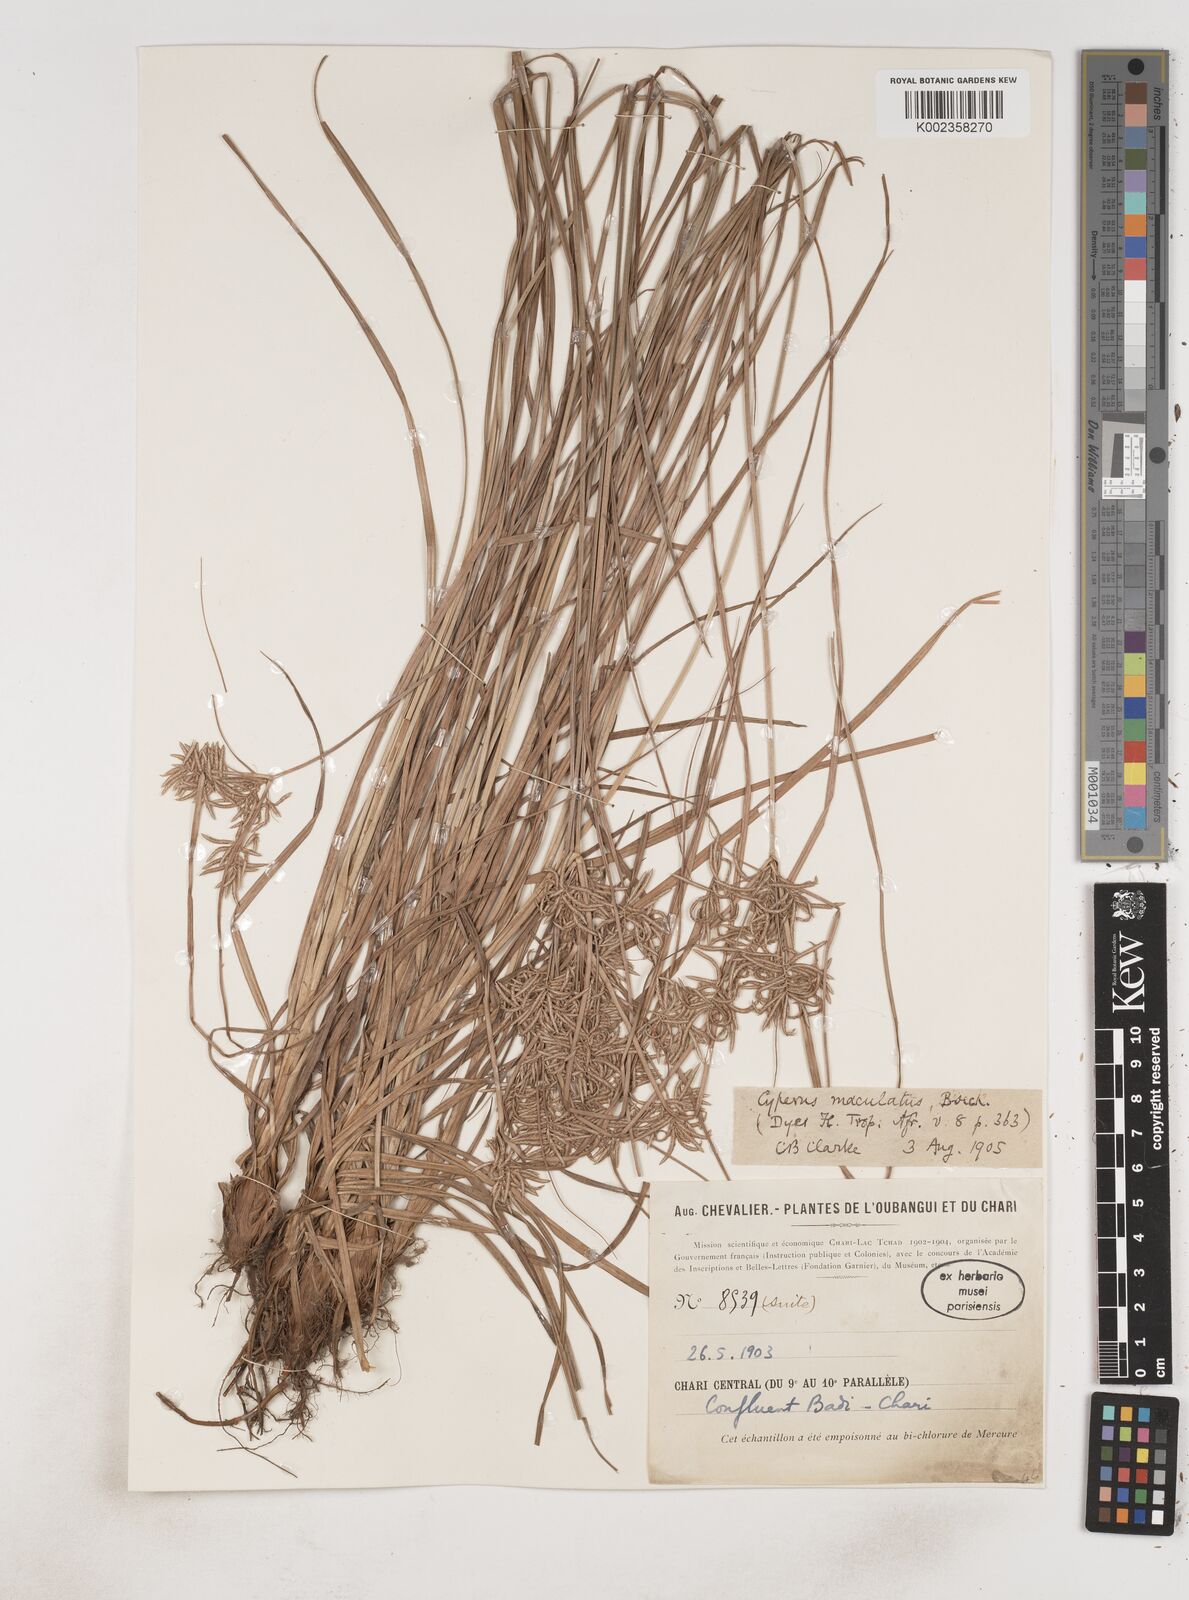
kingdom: Plantae
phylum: Tracheophyta
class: Liliopsida
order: Poales
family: Cyperaceae
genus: Cyperus
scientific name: Cyperus maculatus
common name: Maculated sedge
